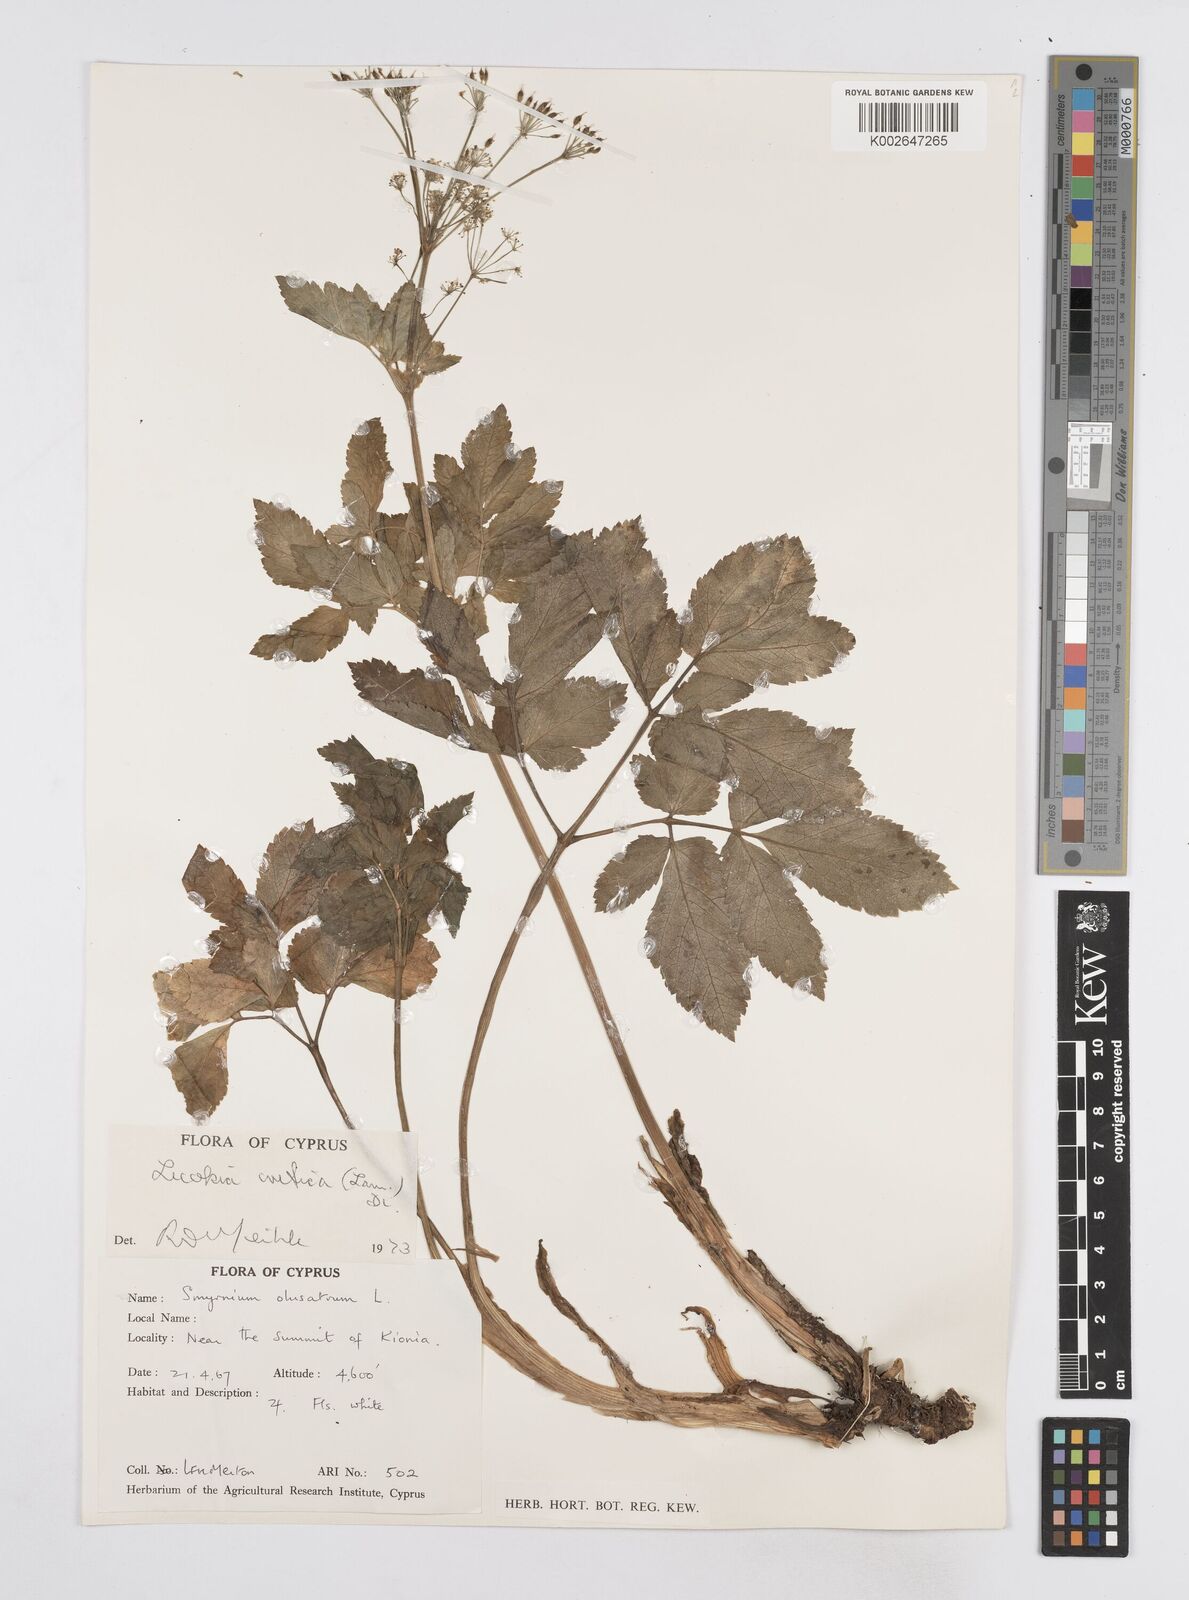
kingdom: Plantae
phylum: Tracheophyta
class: Magnoliopsida
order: Apiales
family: Apiaceae
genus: Lecokia
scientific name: Lecokia cretica
